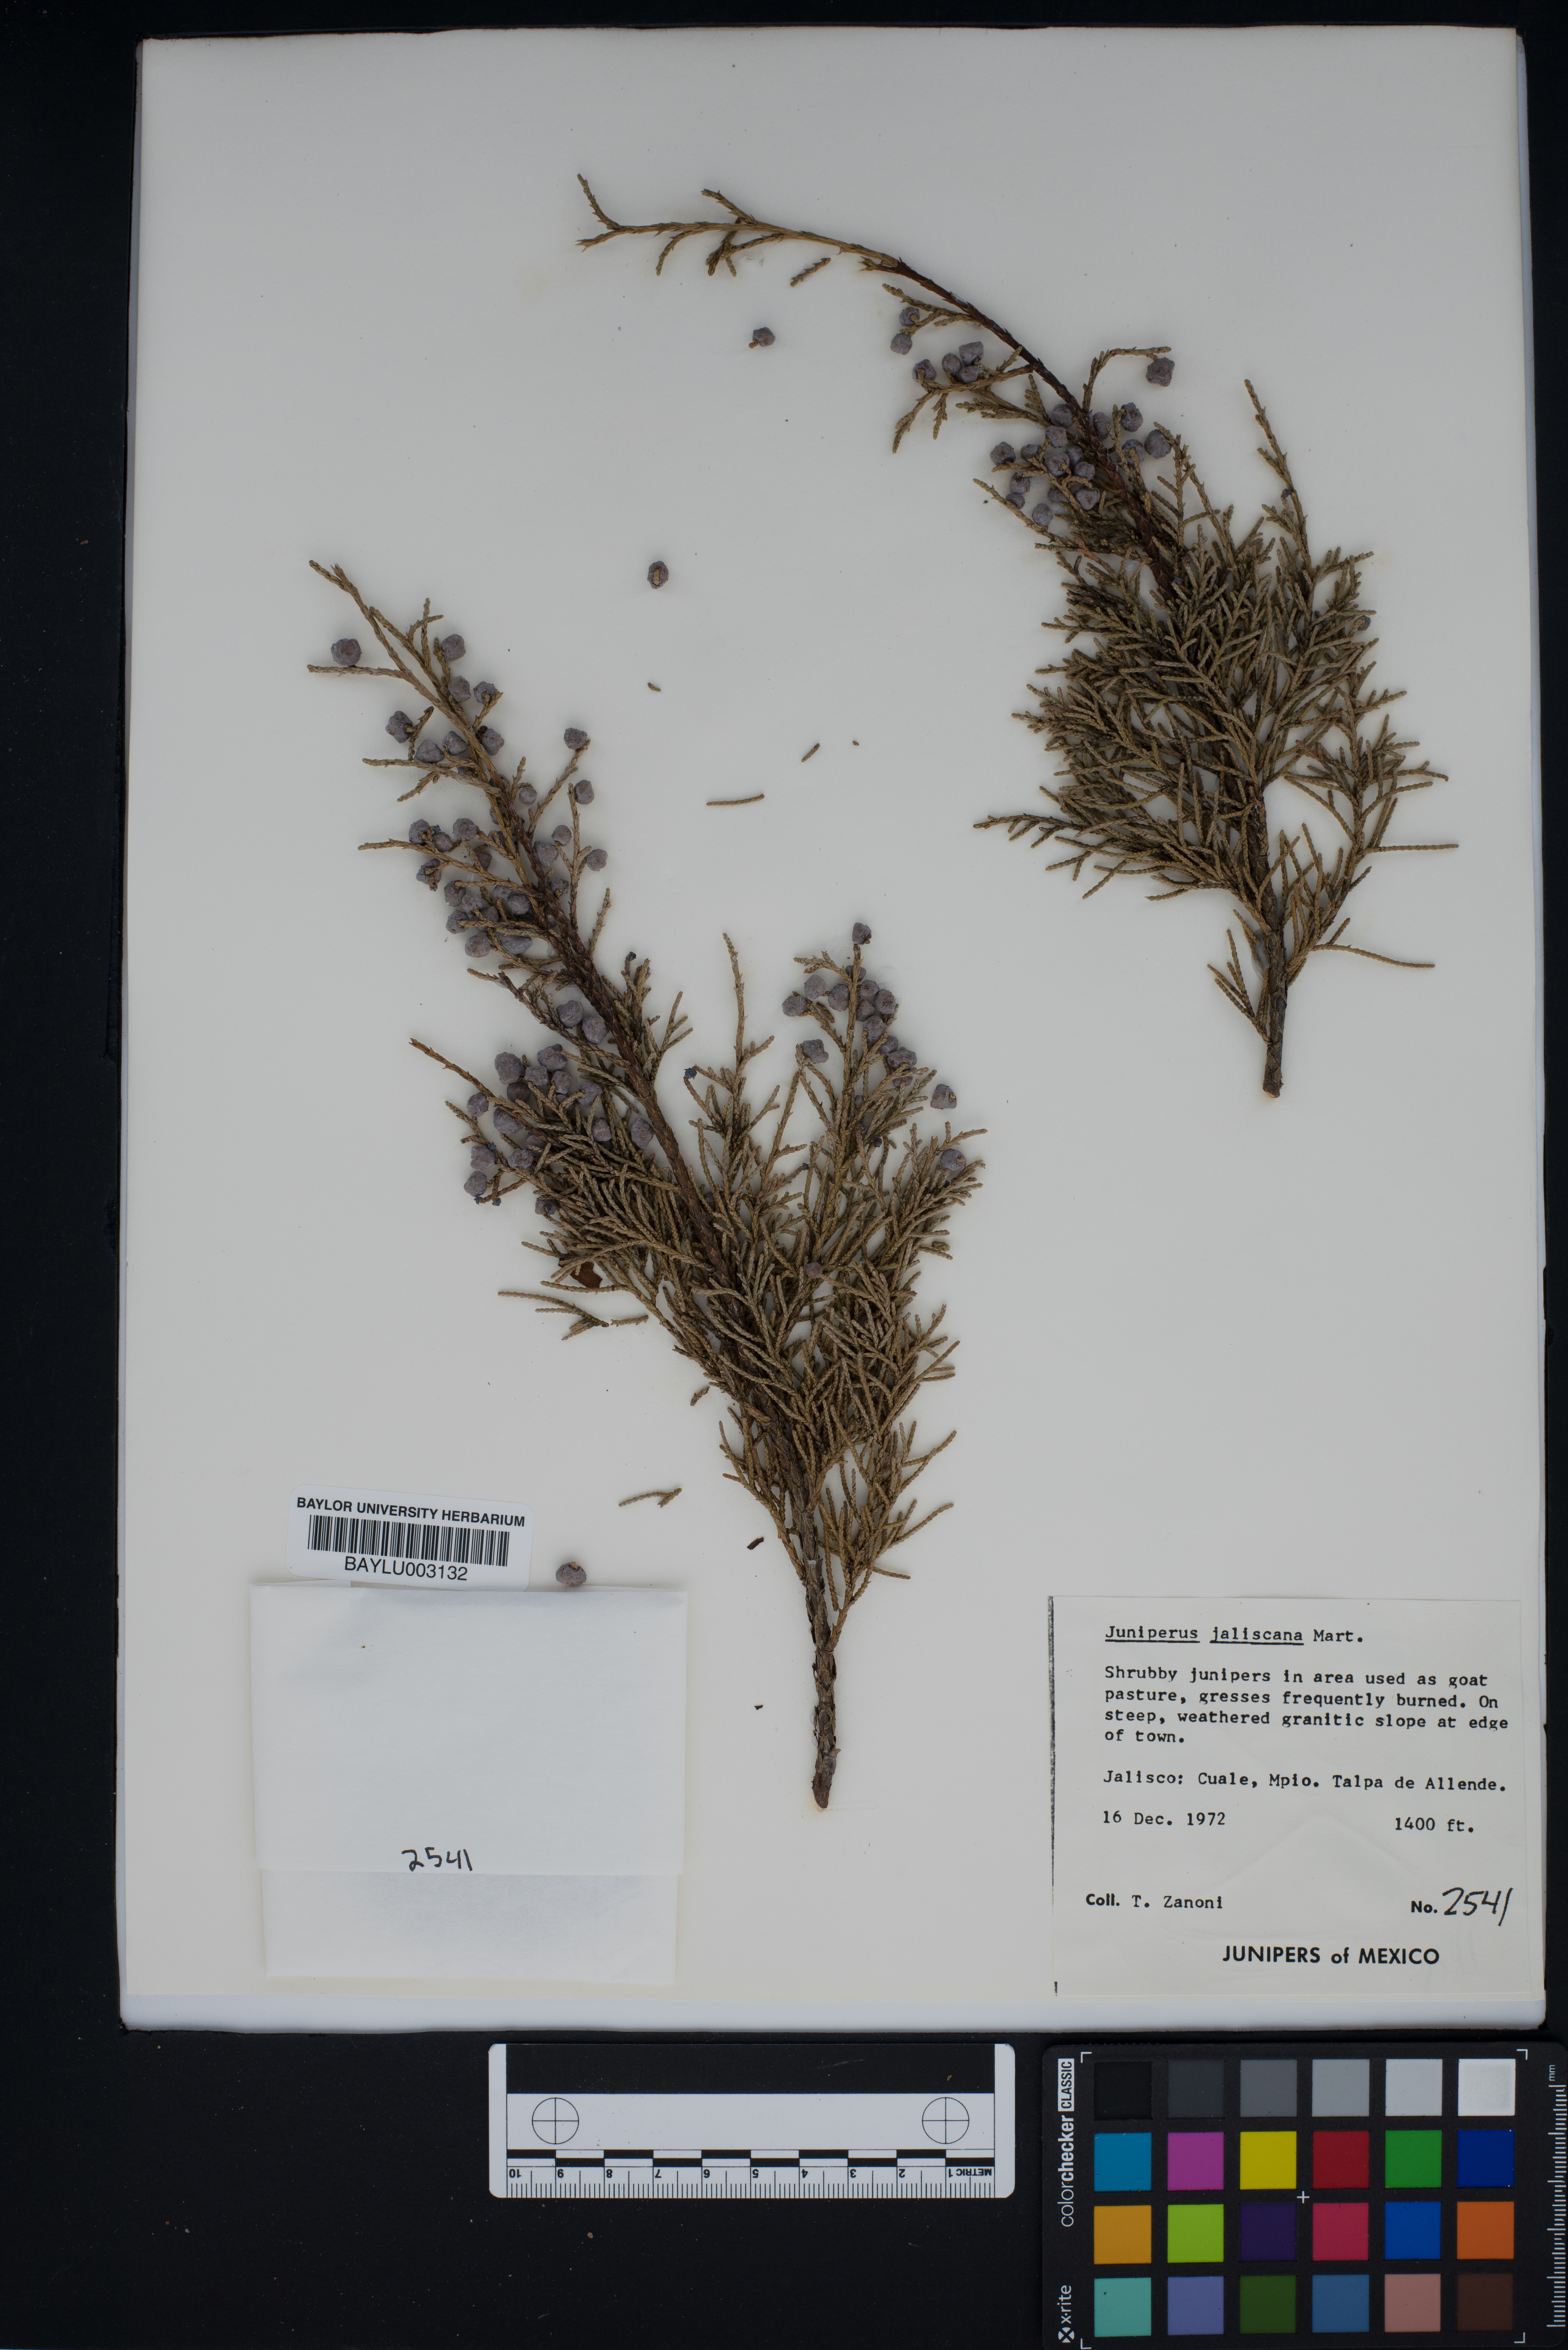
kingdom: Plantae
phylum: Tracheophyta
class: Pinopsida
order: Pinales
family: Cupressaceae
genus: Juniperus
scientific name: Juniperus jaliscana
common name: Jalisco juniper
